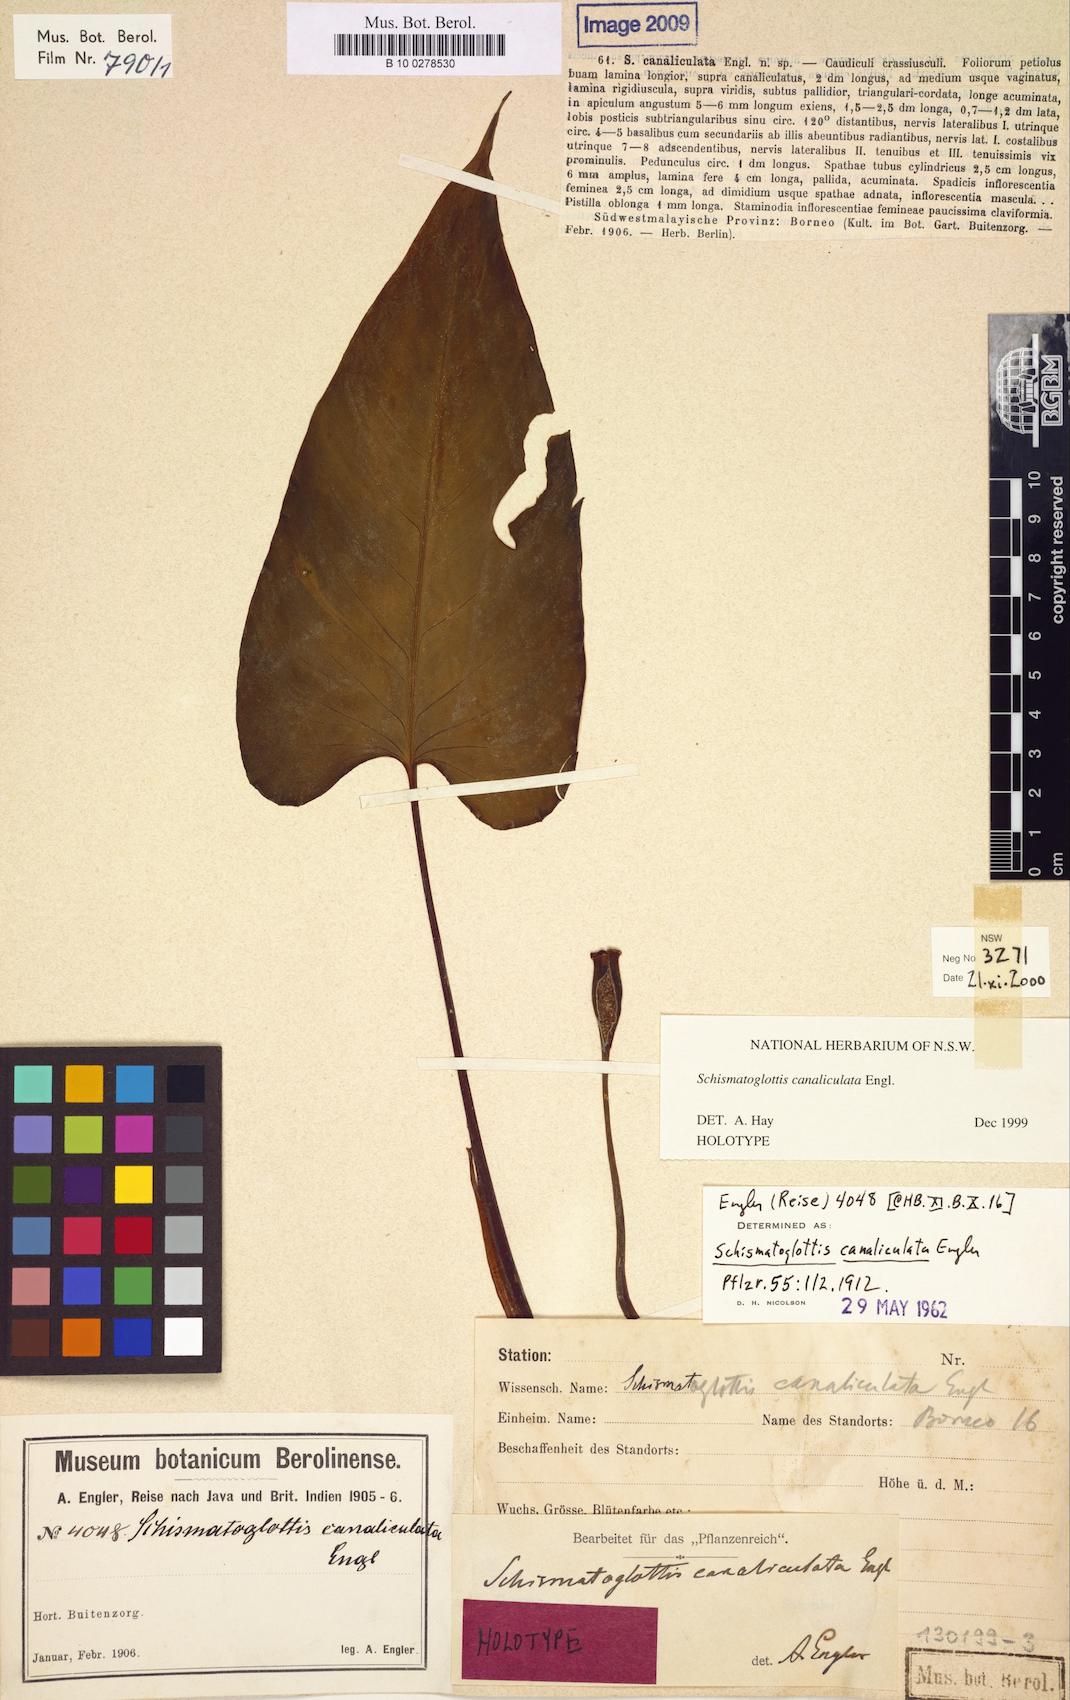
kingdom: Plantae
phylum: Tracheophyta
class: Liliopsida
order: Alismatales
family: Araceae
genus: Schismatoglottis
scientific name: Schismatoglottis canaliculata
